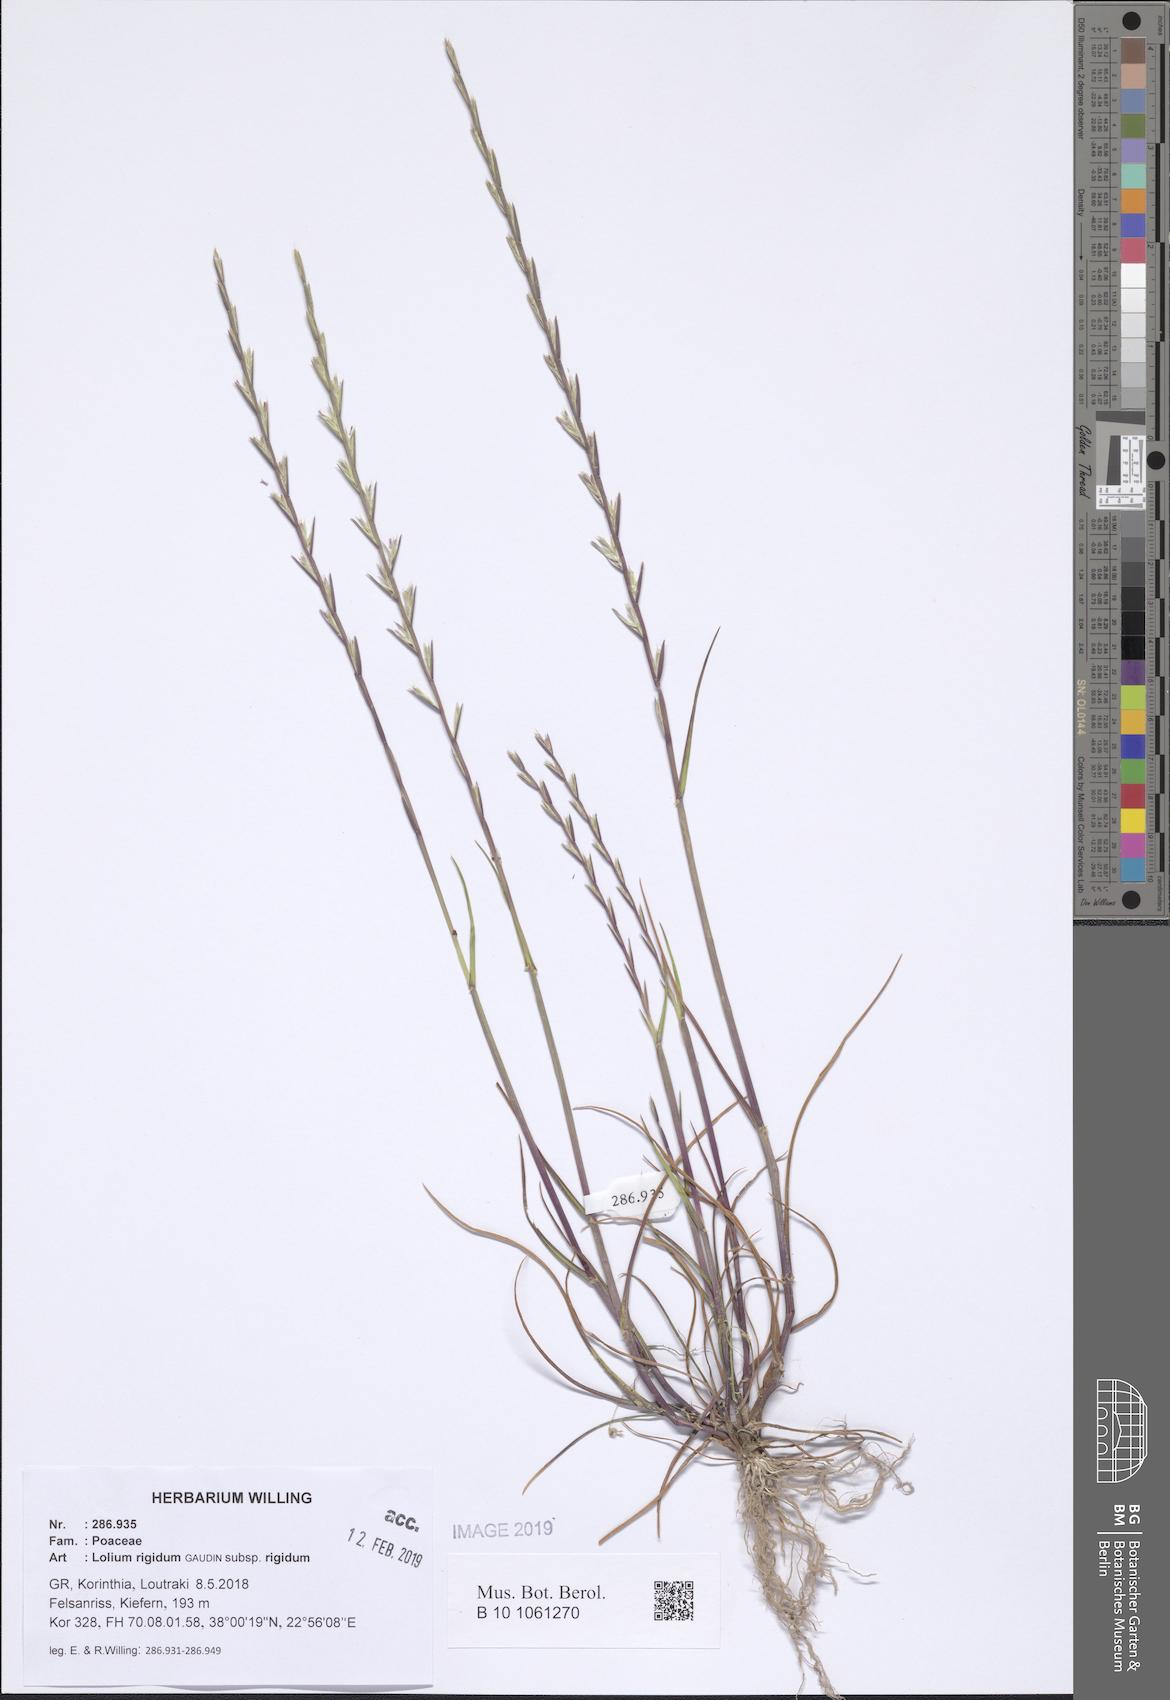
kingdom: Plantae
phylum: Tracheophyta
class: Liliopsida
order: Poales
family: Poaceae
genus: Lolium
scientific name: Lolium rigidum
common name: Wimmera ryegrass
